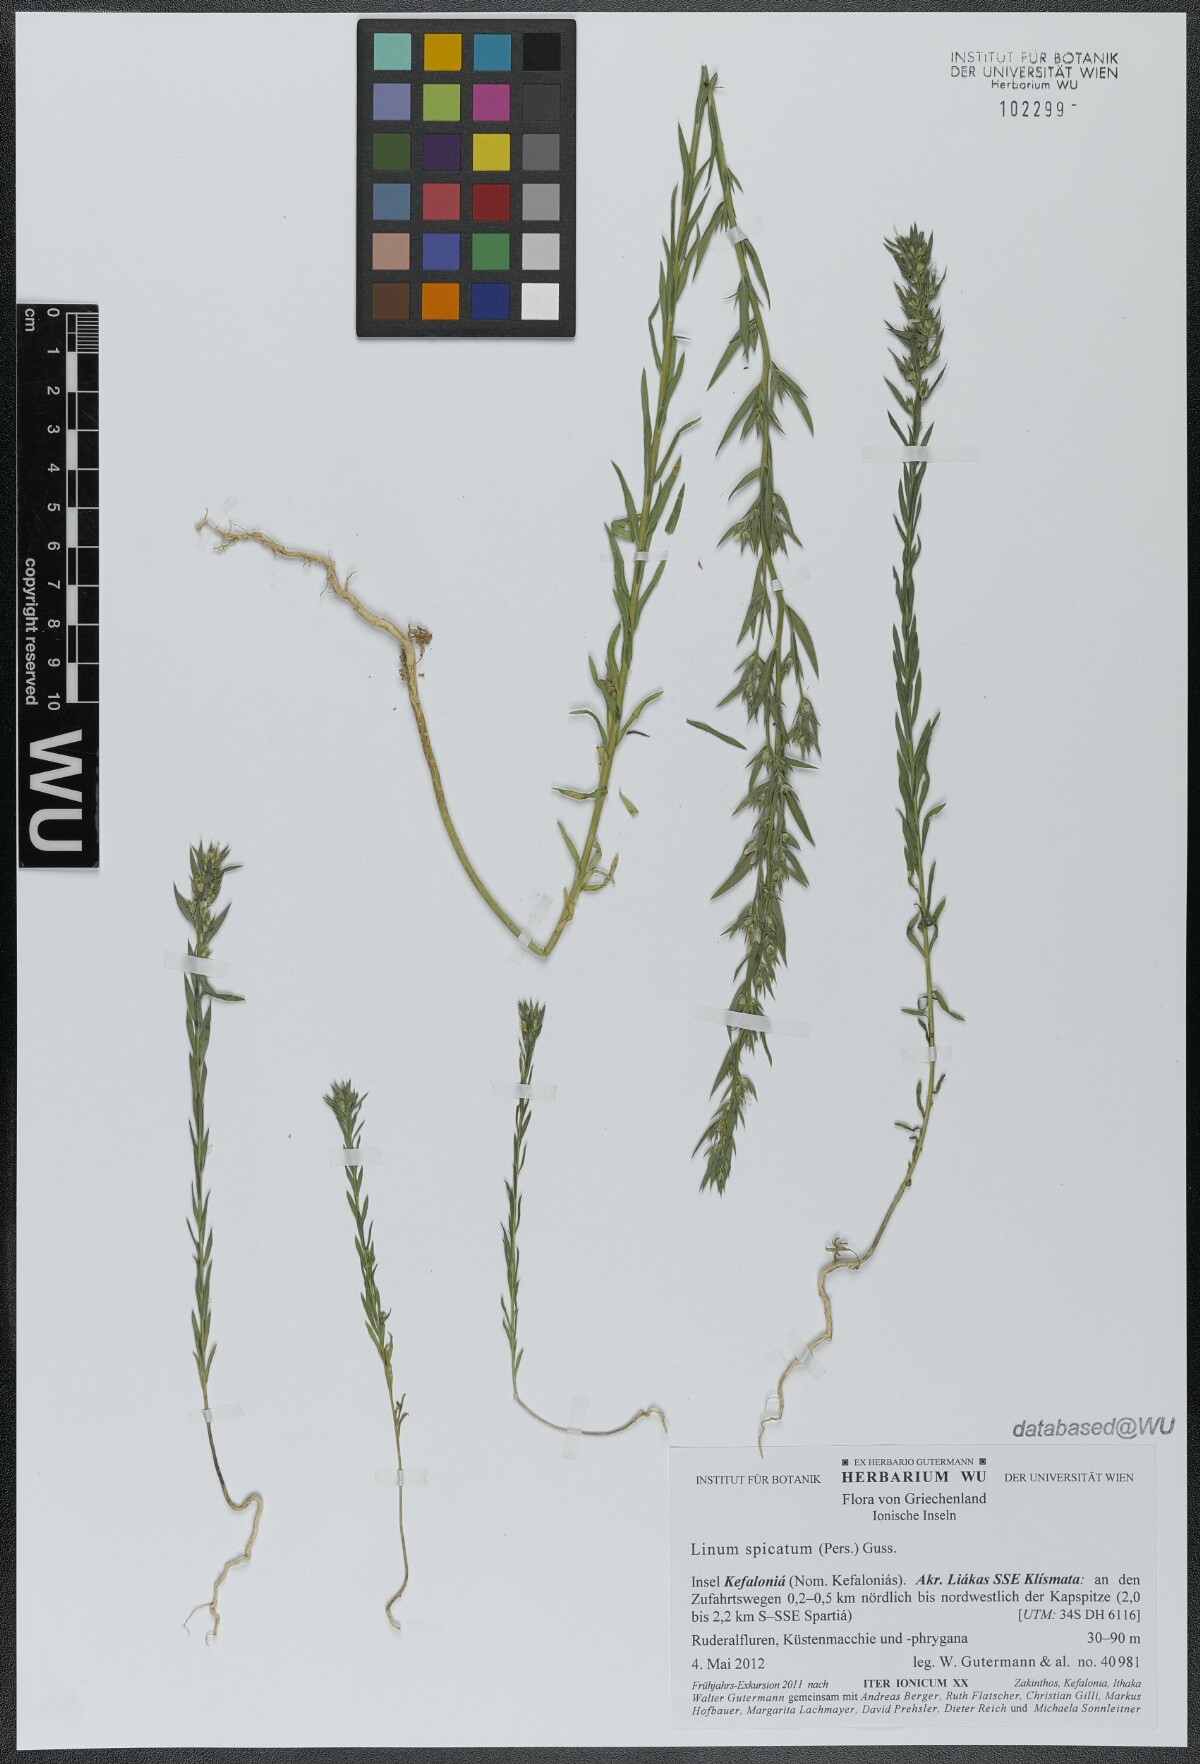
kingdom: Plantae
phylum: Tracheophyta
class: Magnoliopsida
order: Malpighiales
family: Linaceae
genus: Linum
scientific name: Linum strictum
